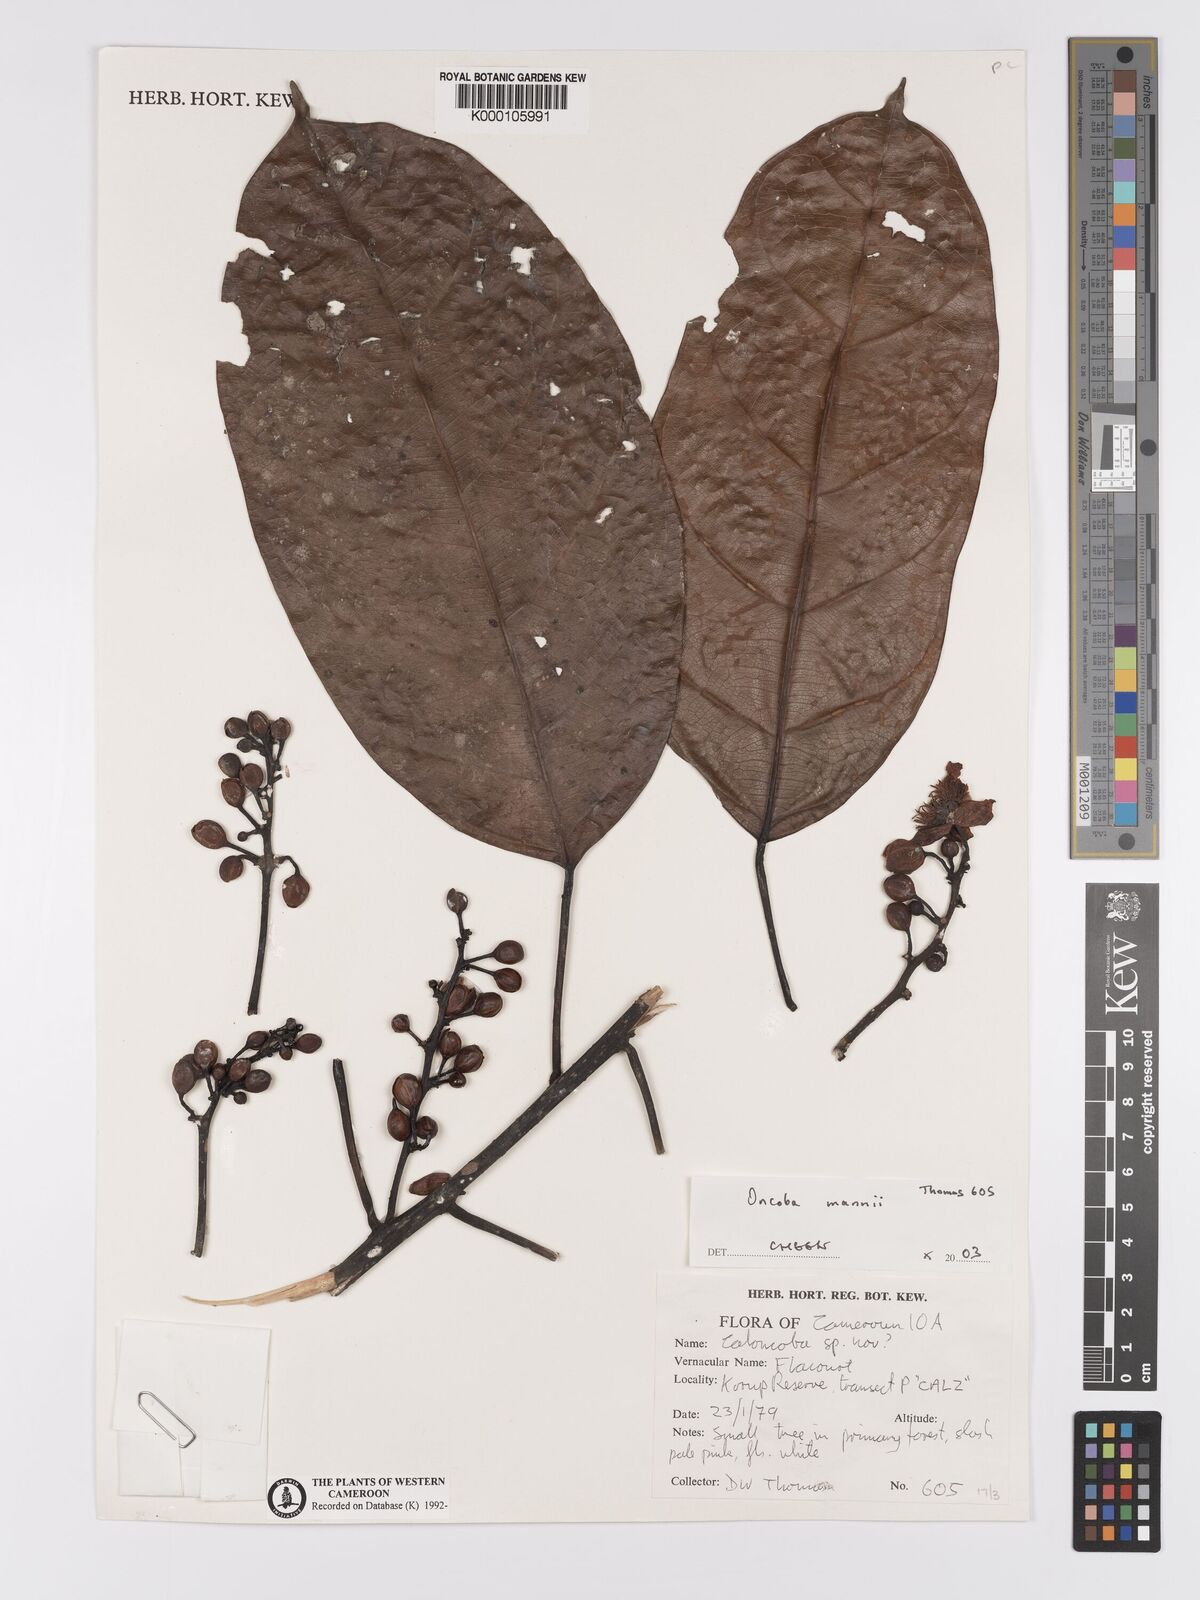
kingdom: Plantae
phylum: Tracheophyta
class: Magnoliopsida
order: Malpighiales
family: Achariaceae
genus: Camptostylus
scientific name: Camptostylus mannii
